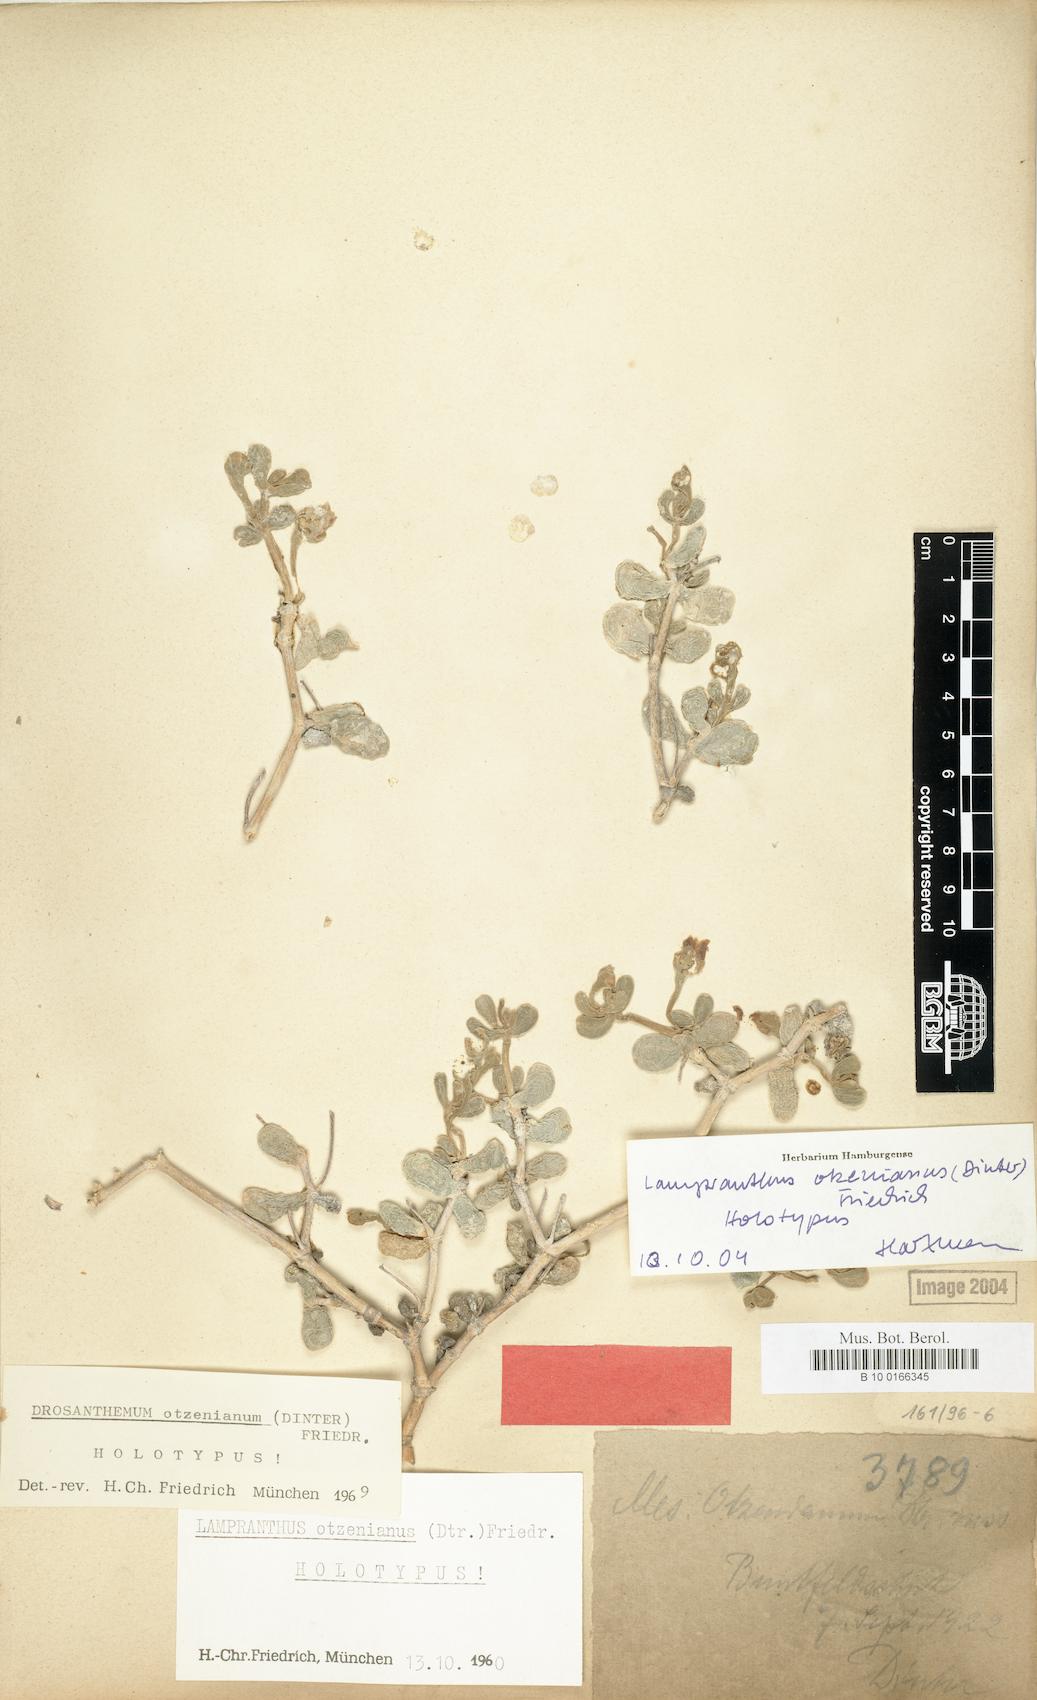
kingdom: Plantae
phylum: Tracheophyta
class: Magnoliopsida
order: Caryophyllales
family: Aizoaceae
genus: Lampranthus
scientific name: Lampranthus otzenianus
